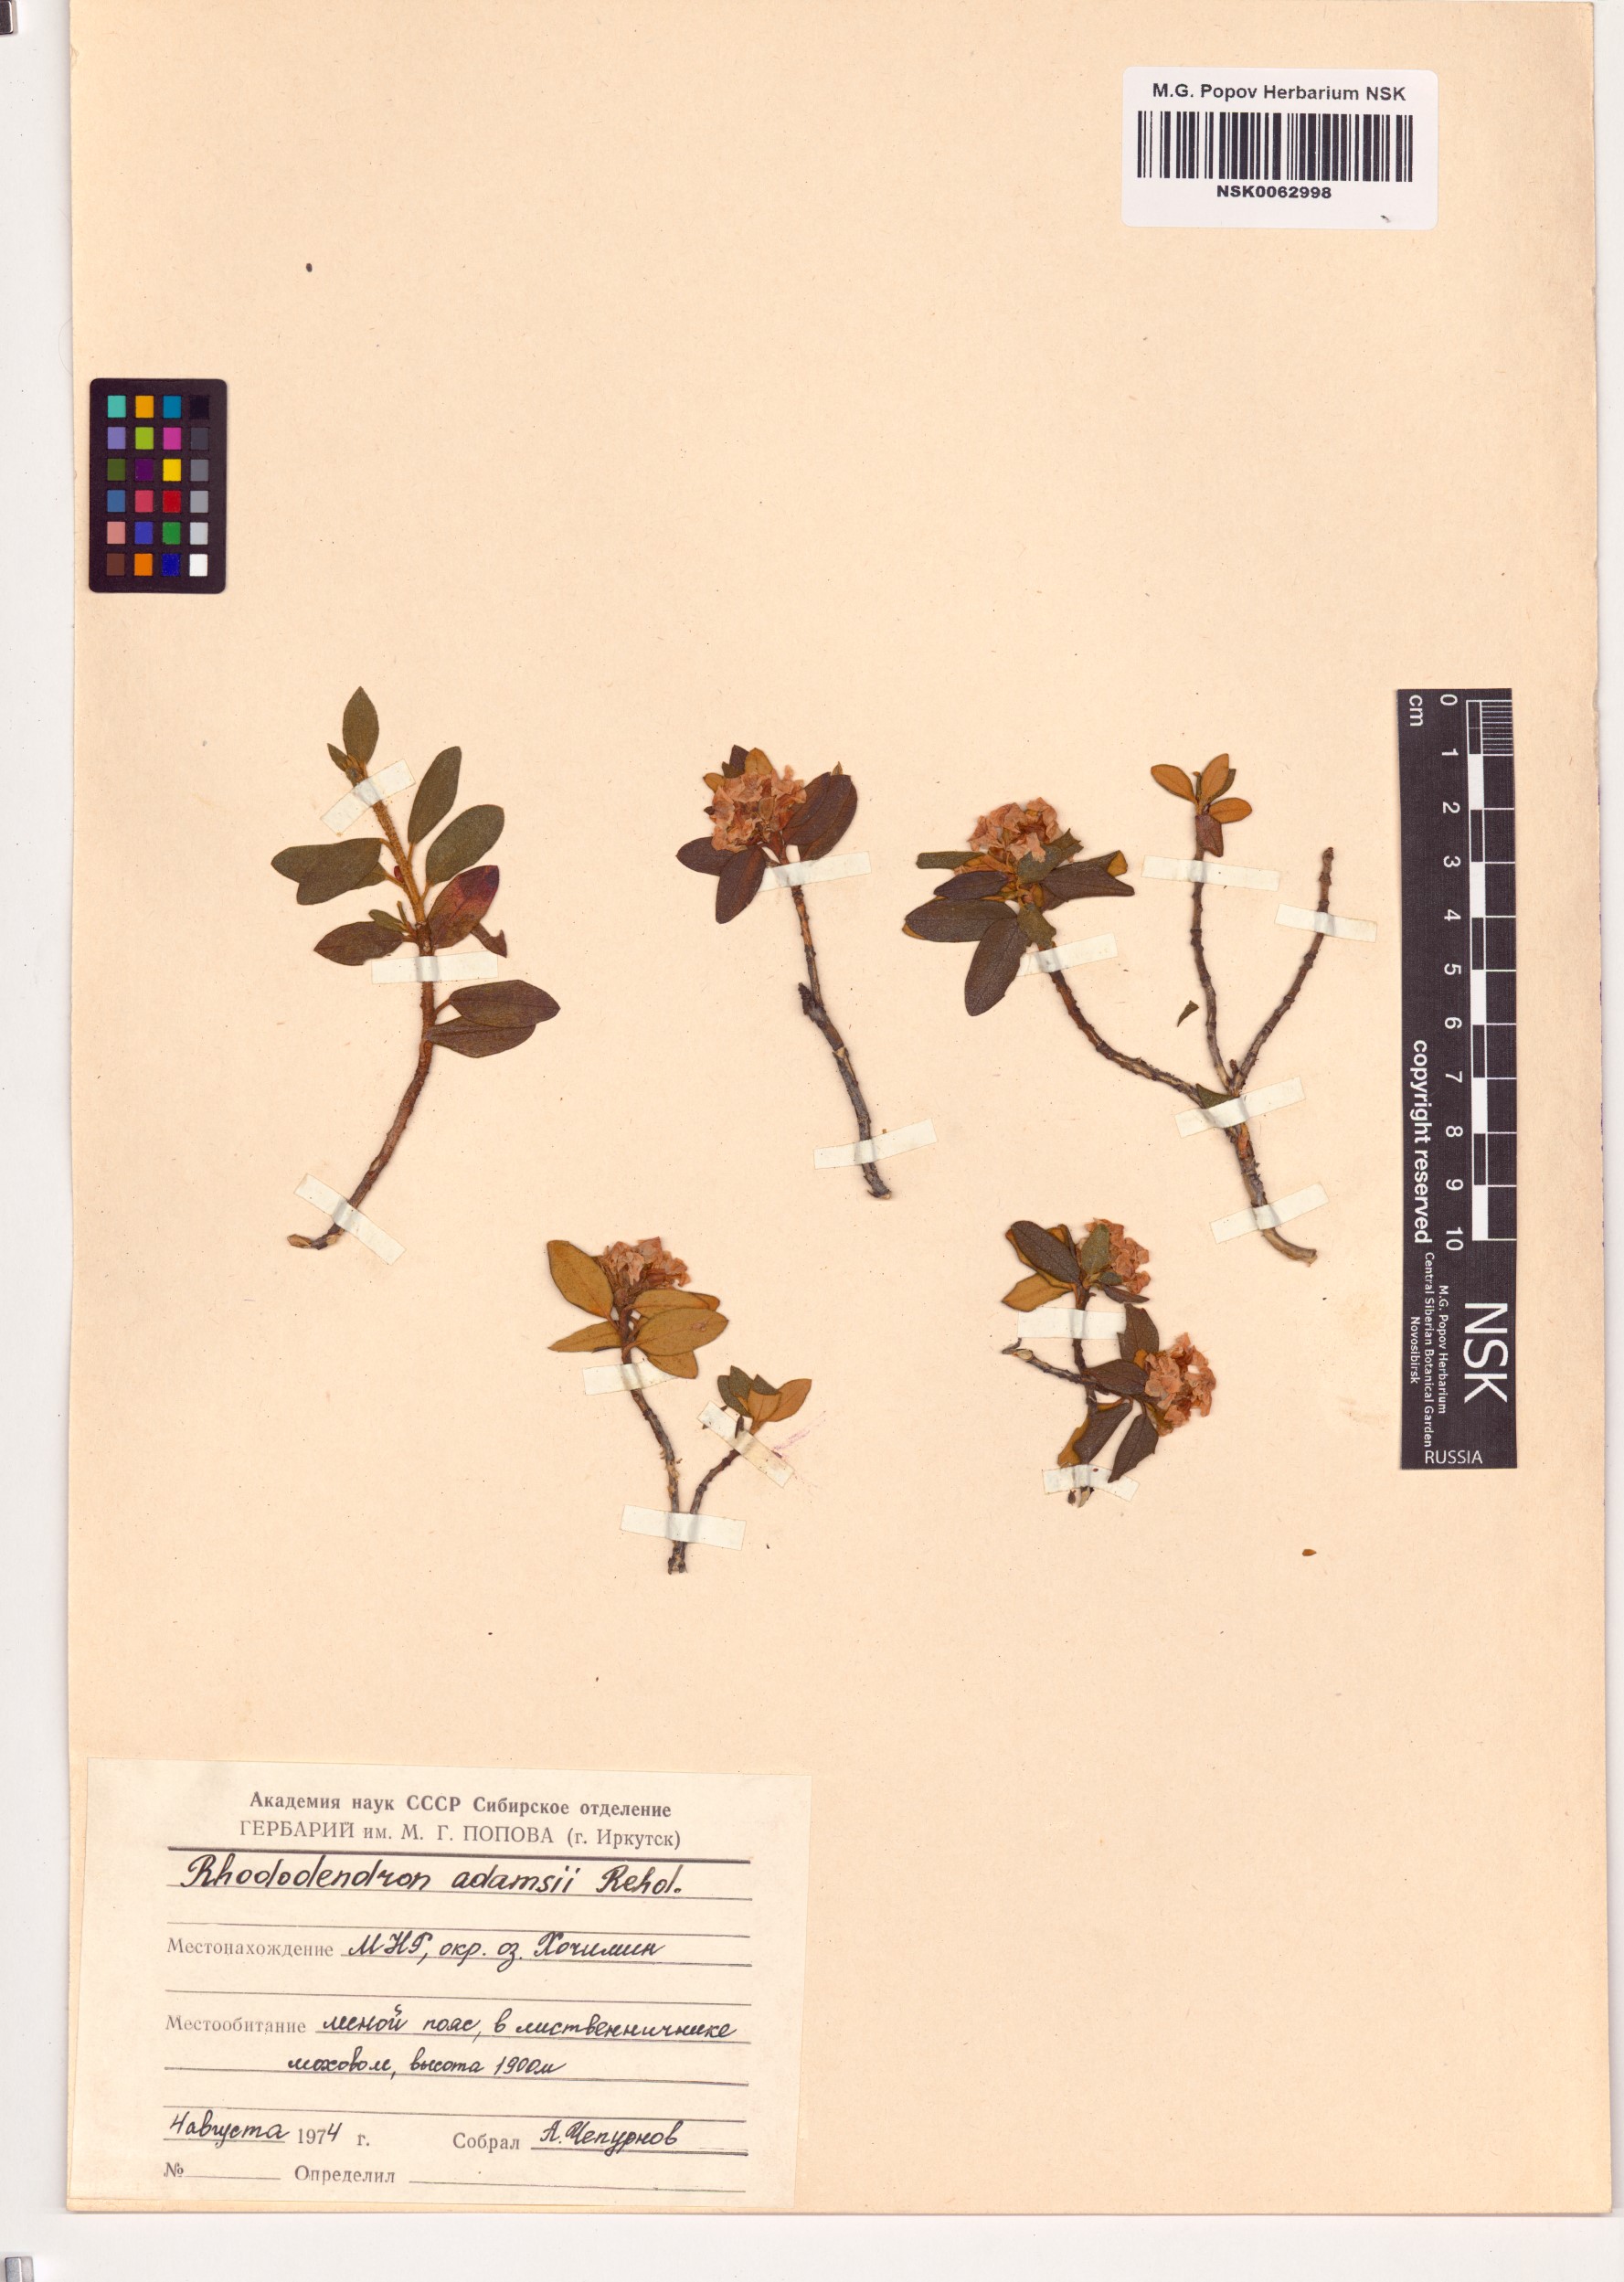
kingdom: Plantae
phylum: Tracheophyta
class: Magnoliopsida
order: Ericales
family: Ericaceae
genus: Rhododendron
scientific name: Rhododendron adamsii
